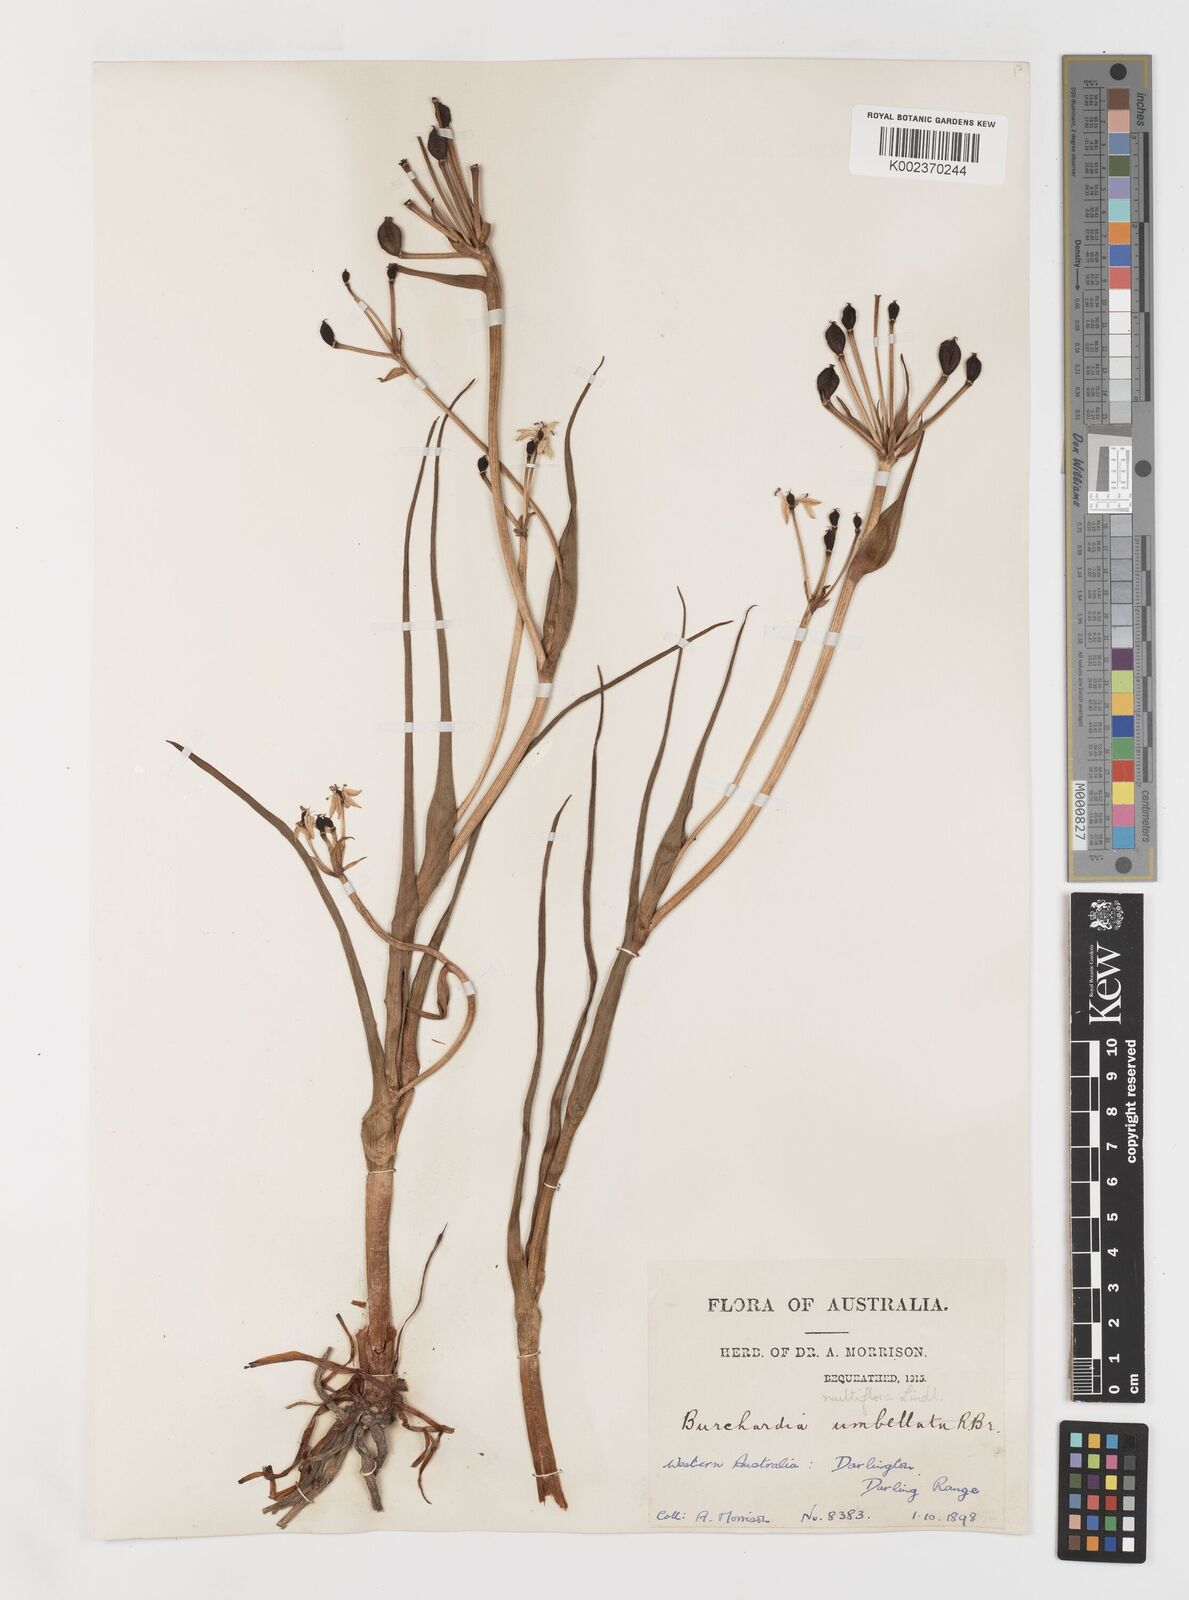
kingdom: Plantae
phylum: Tracheophyta
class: Liliopsida
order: Liliales
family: Colchicaceae
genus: Burchardia
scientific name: Burchardia multiflora
